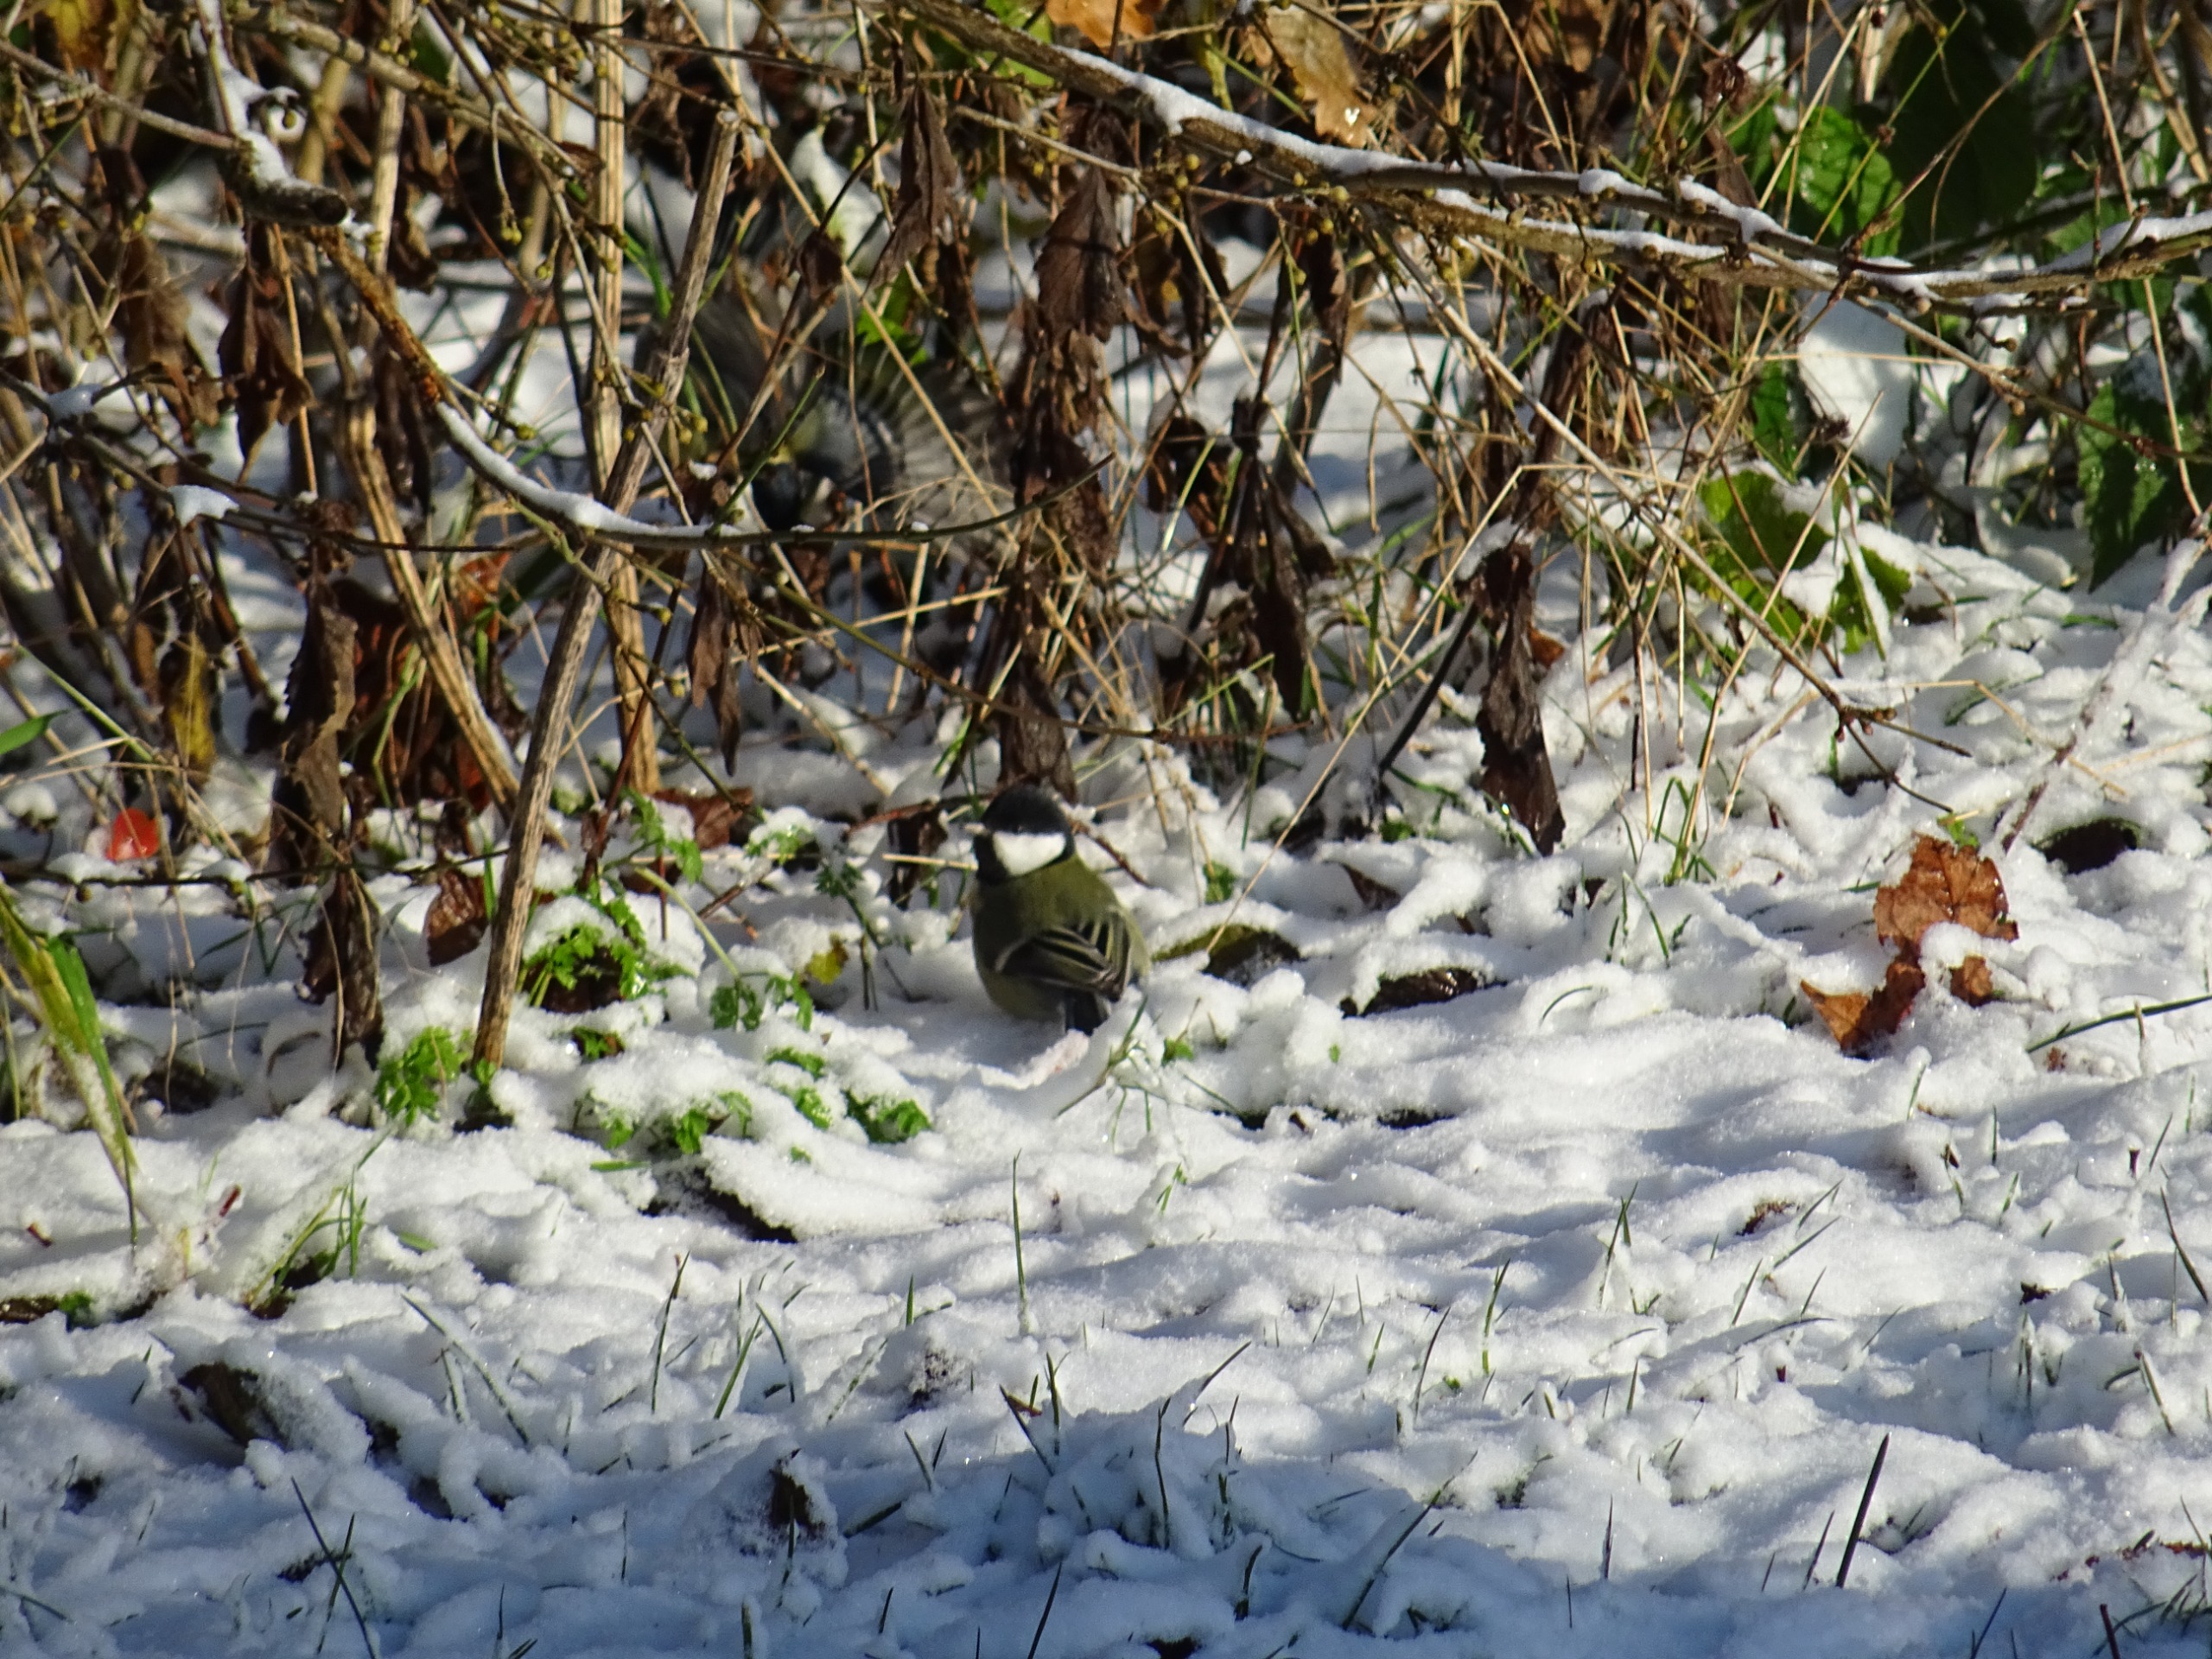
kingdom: Animalia
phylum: Chordata
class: Aves
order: Passeriformes
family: Paridae
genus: Parus
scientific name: Parus major
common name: Musvit
